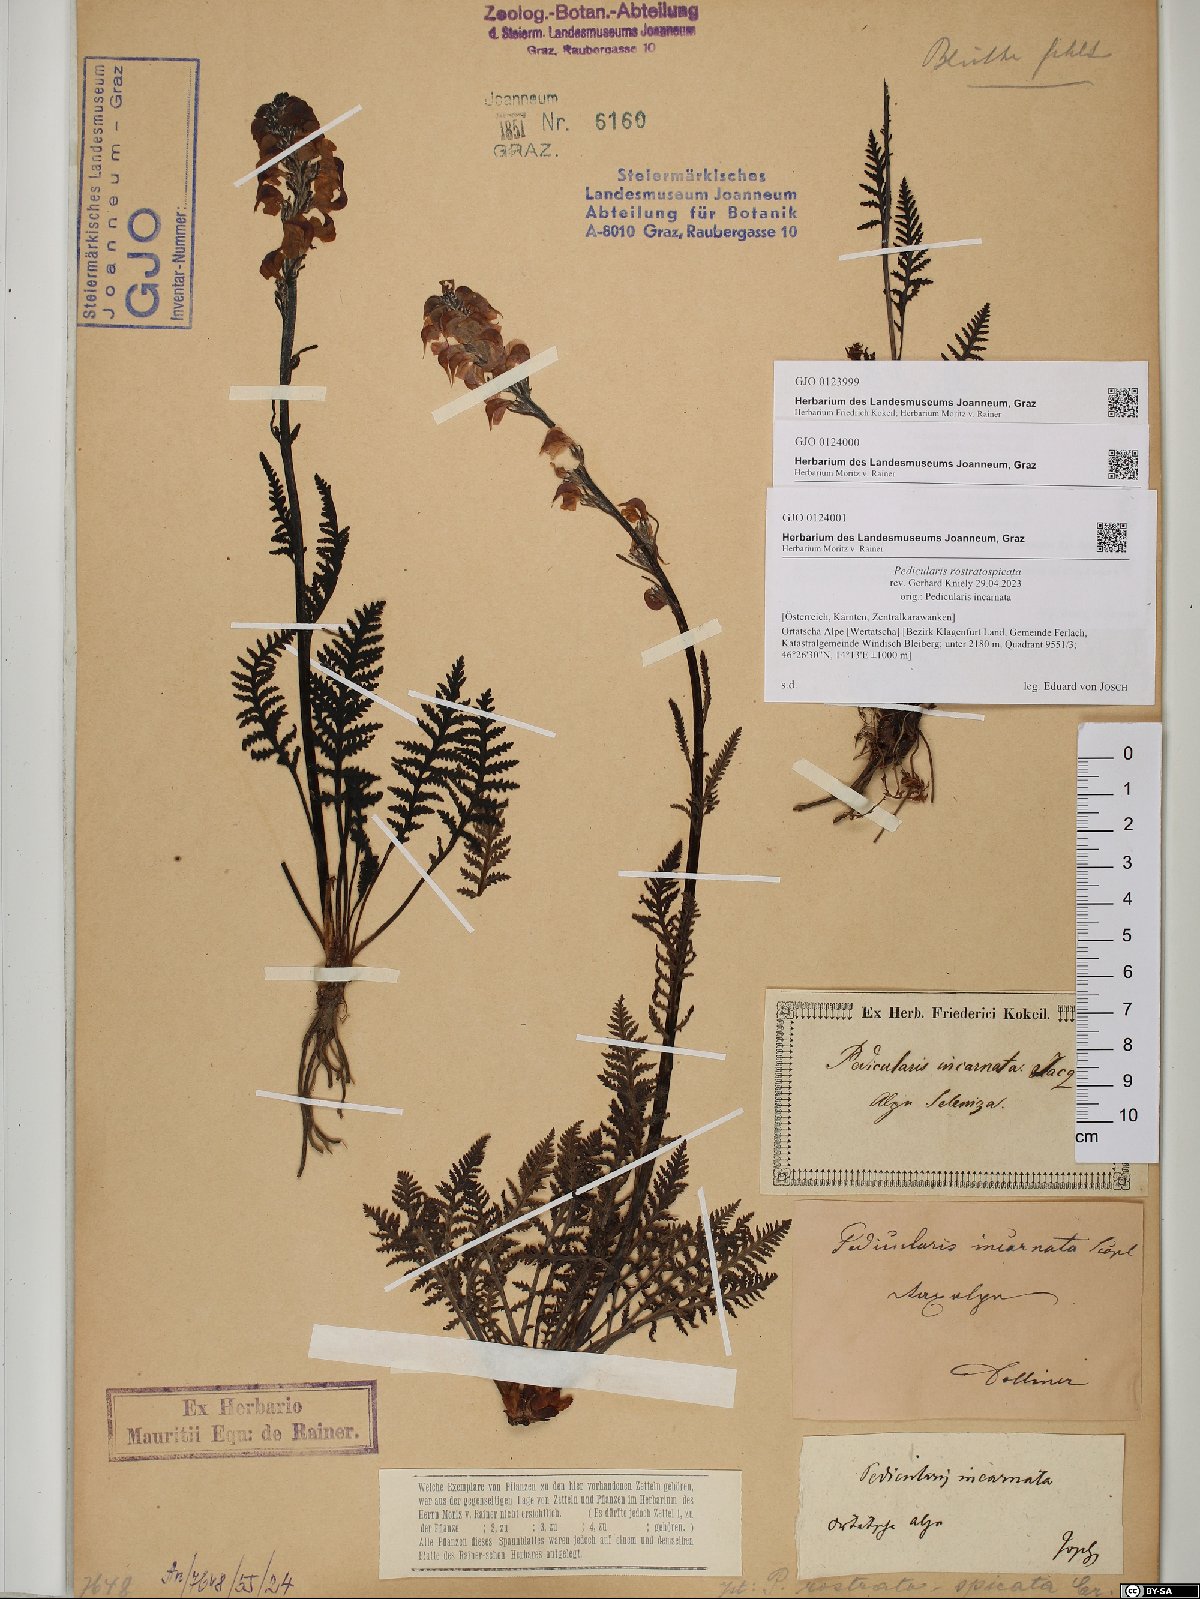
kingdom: Plantae
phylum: Tracheophyta
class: Magnoliopsida
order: Lamiales
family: Orobanchaceae
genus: Pedicularis
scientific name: Pedicularis rostratospicata
